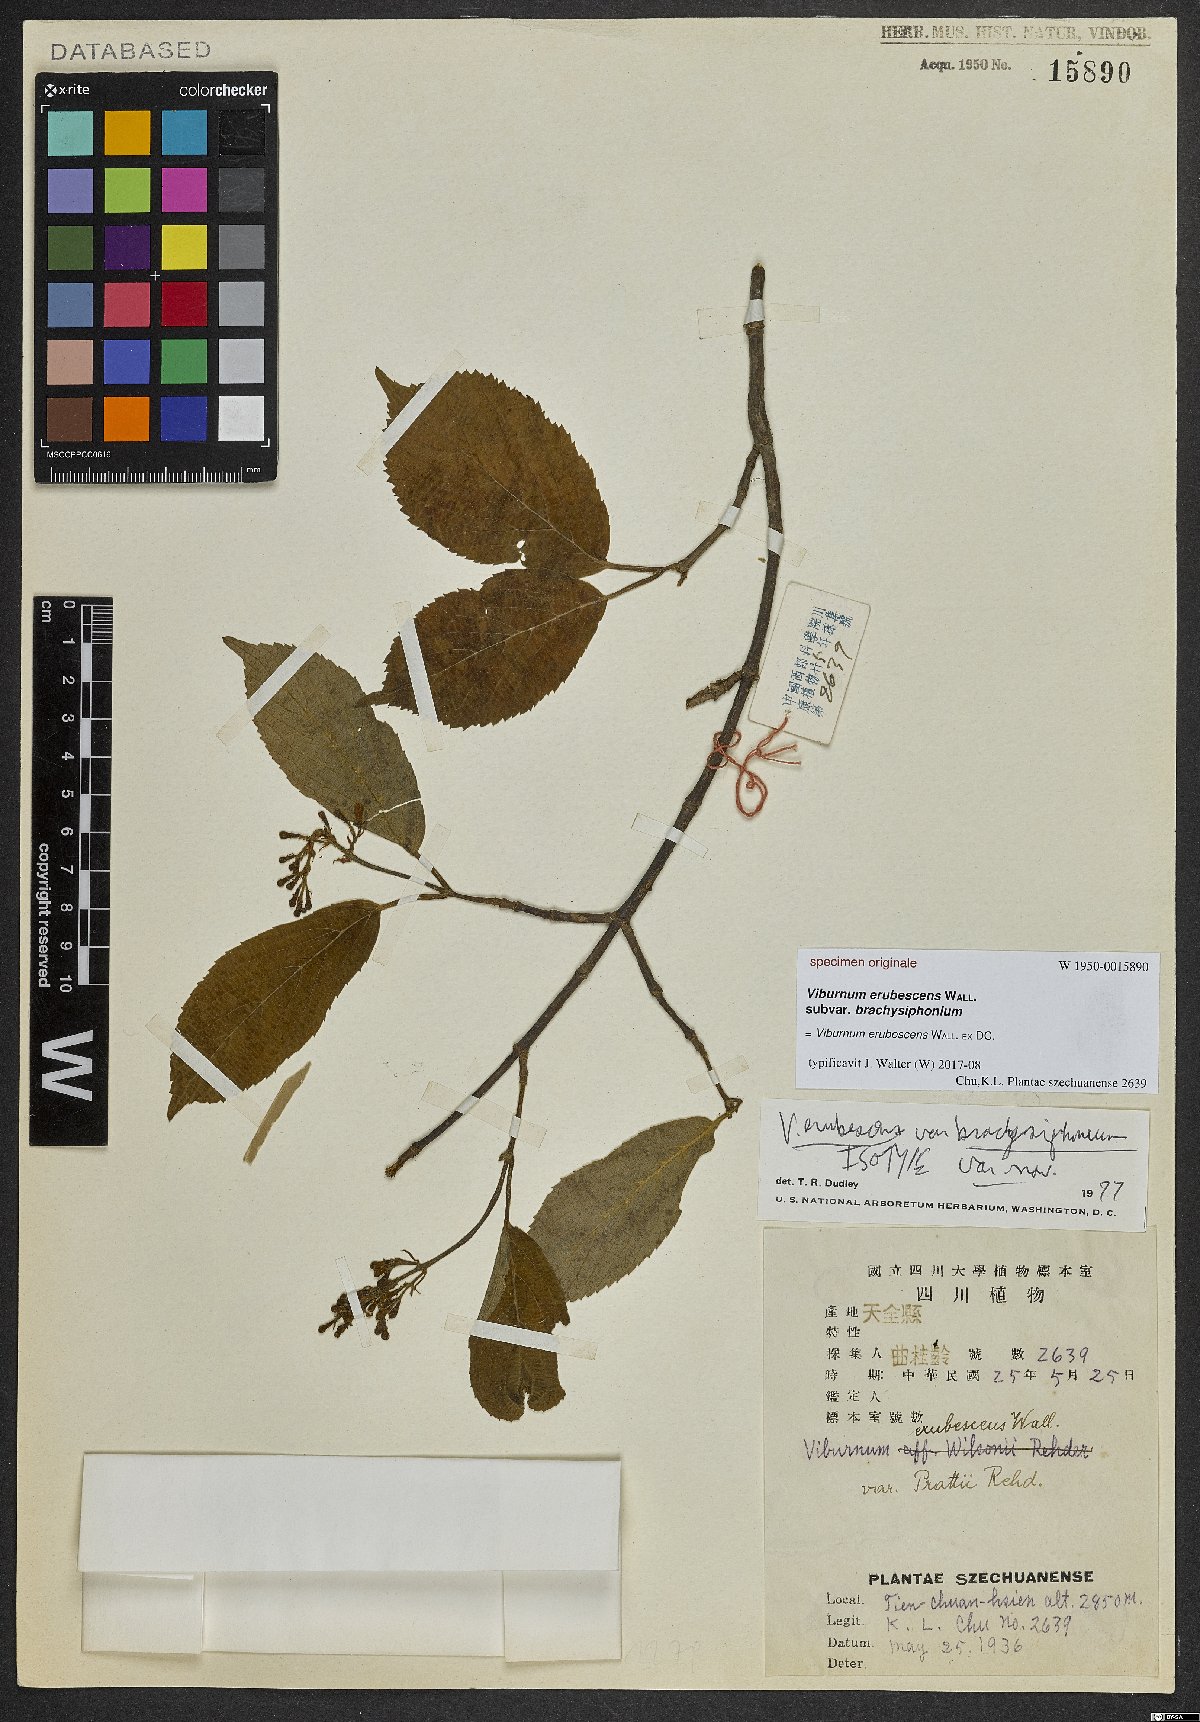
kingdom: Plantae
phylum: Tracheophyta
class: Magnoliopsida
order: Dipsacales
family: Viburnaceae
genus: Viburnum
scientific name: Viburnum erubescens
